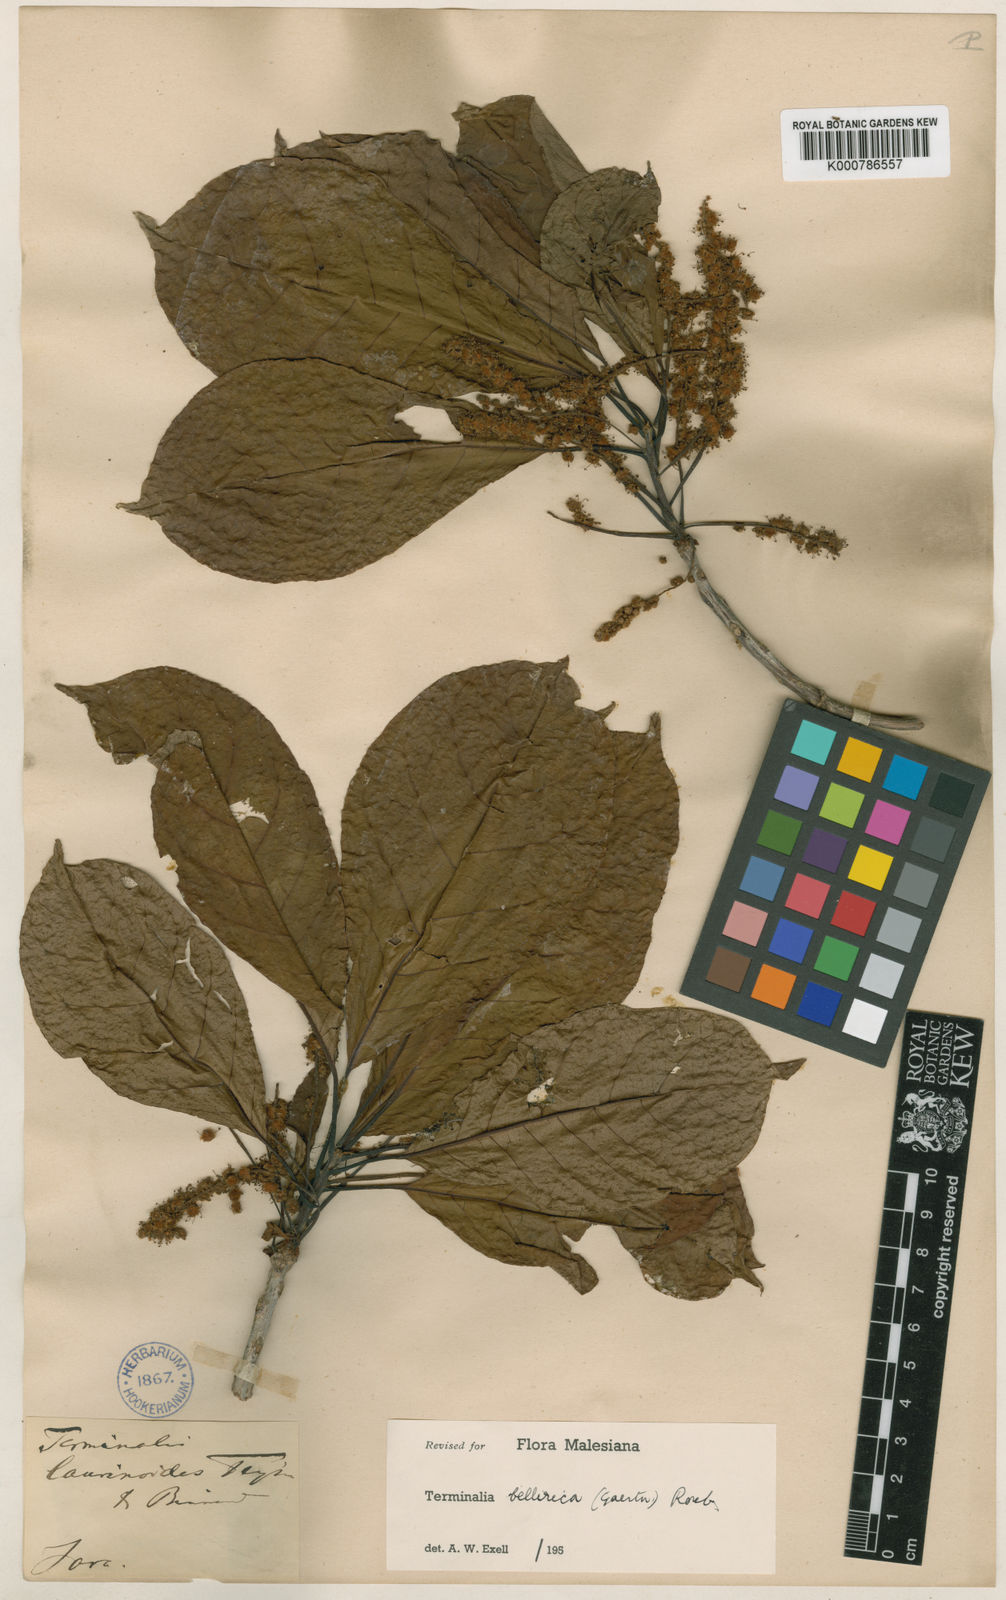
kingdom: Plantae
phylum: Tracheophyta
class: Magnoliopsida
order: Myrtales
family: Combretaceae
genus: Terminalia
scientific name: Terminalia bellirica
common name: Beleric myrobalan
